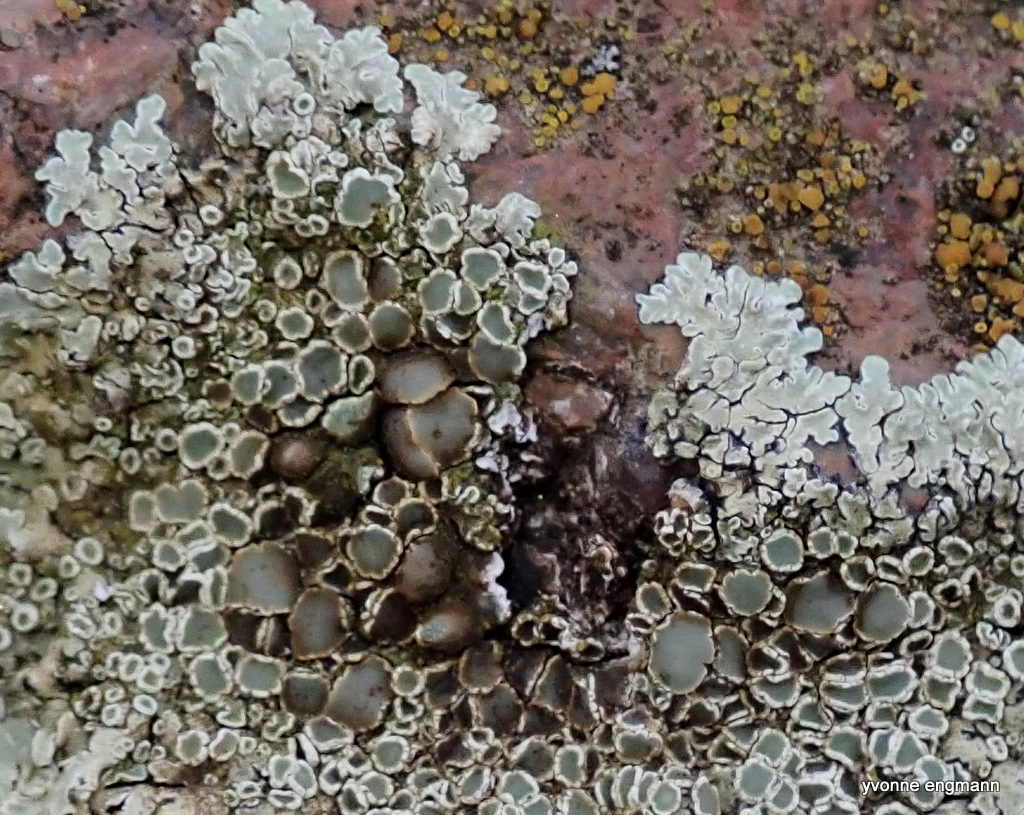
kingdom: Fungi
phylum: Ascomycota
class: Lecanoromycetes
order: Lecanorales
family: Lecanoraceae
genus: Protoparmeliopsis
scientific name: Protoparmeliopsis muralis
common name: randfliget kantskivelav
